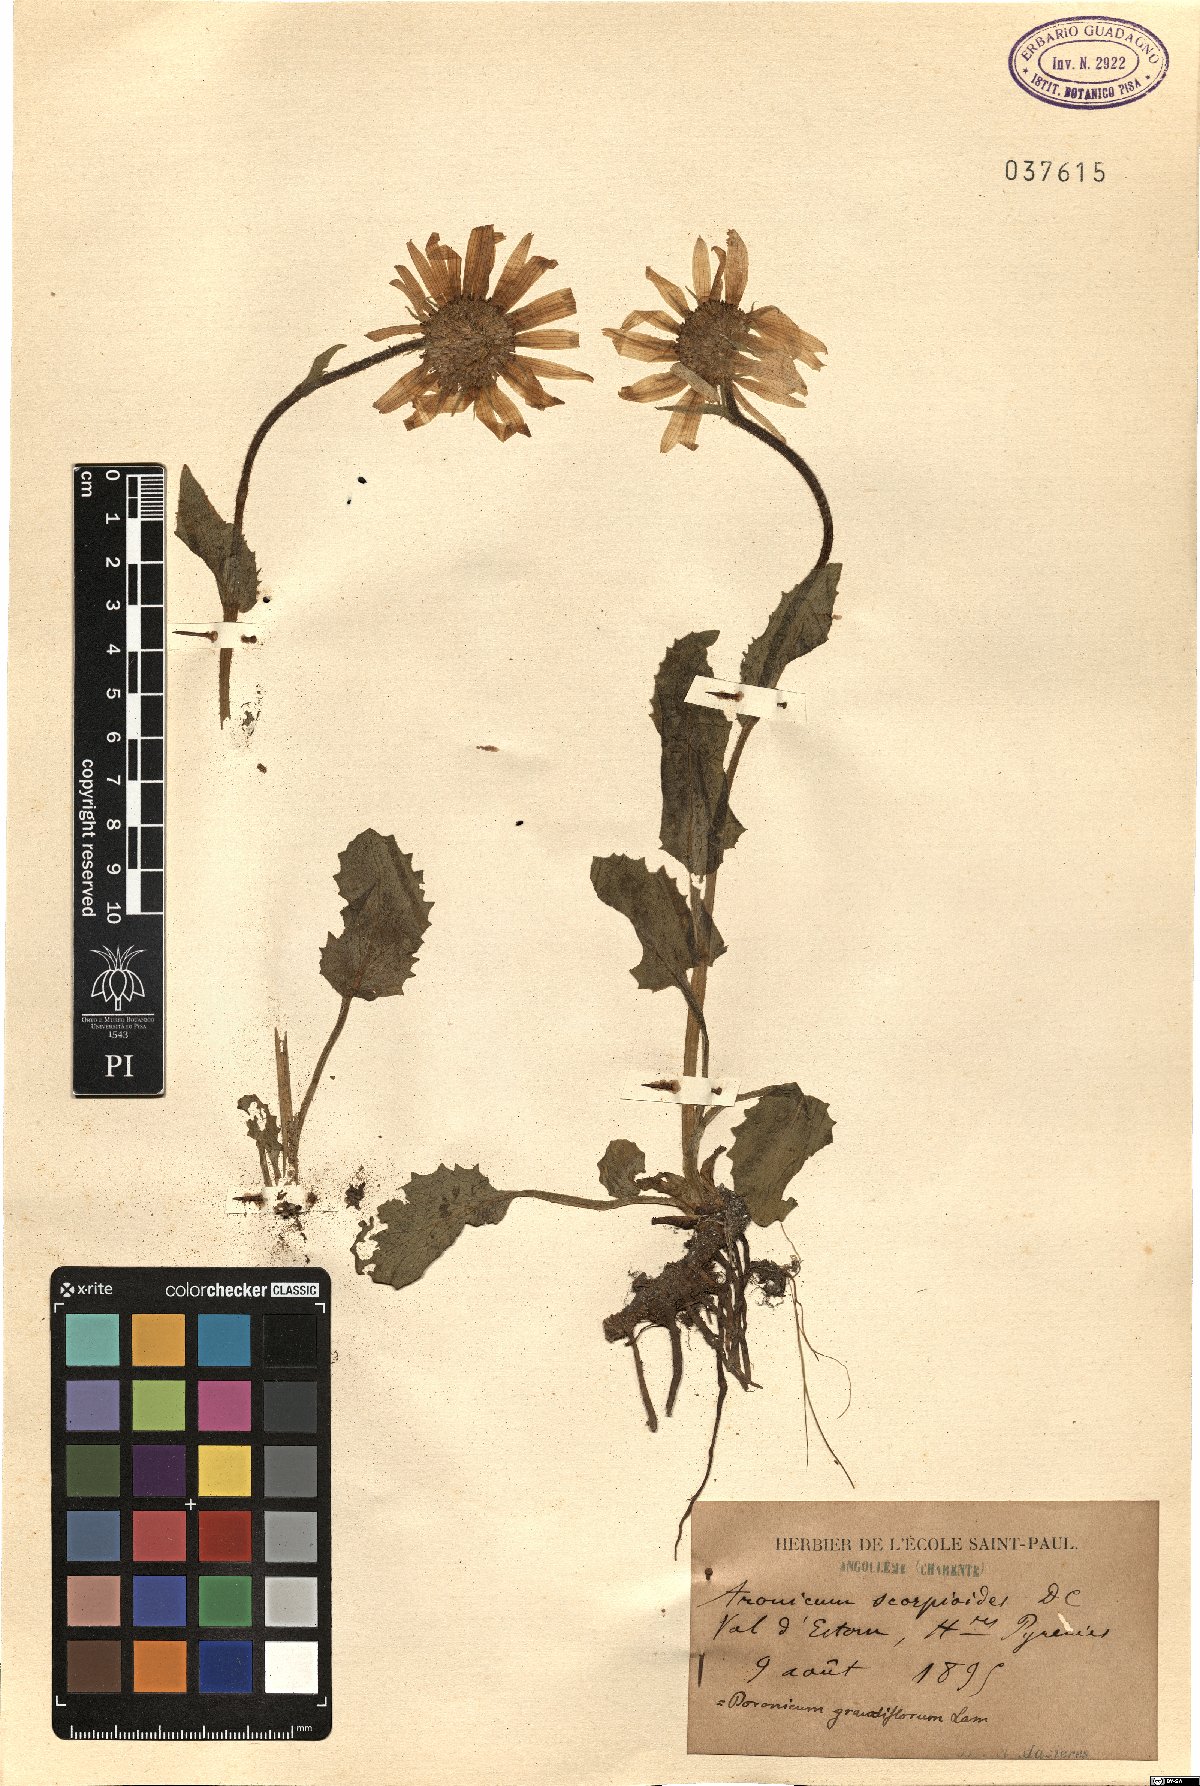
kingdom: Plantae
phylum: Tracheophyta
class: Magnoliopsida
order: Asterales
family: Asteraceae
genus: Doronicum
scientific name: Doronicum grandiflorum
